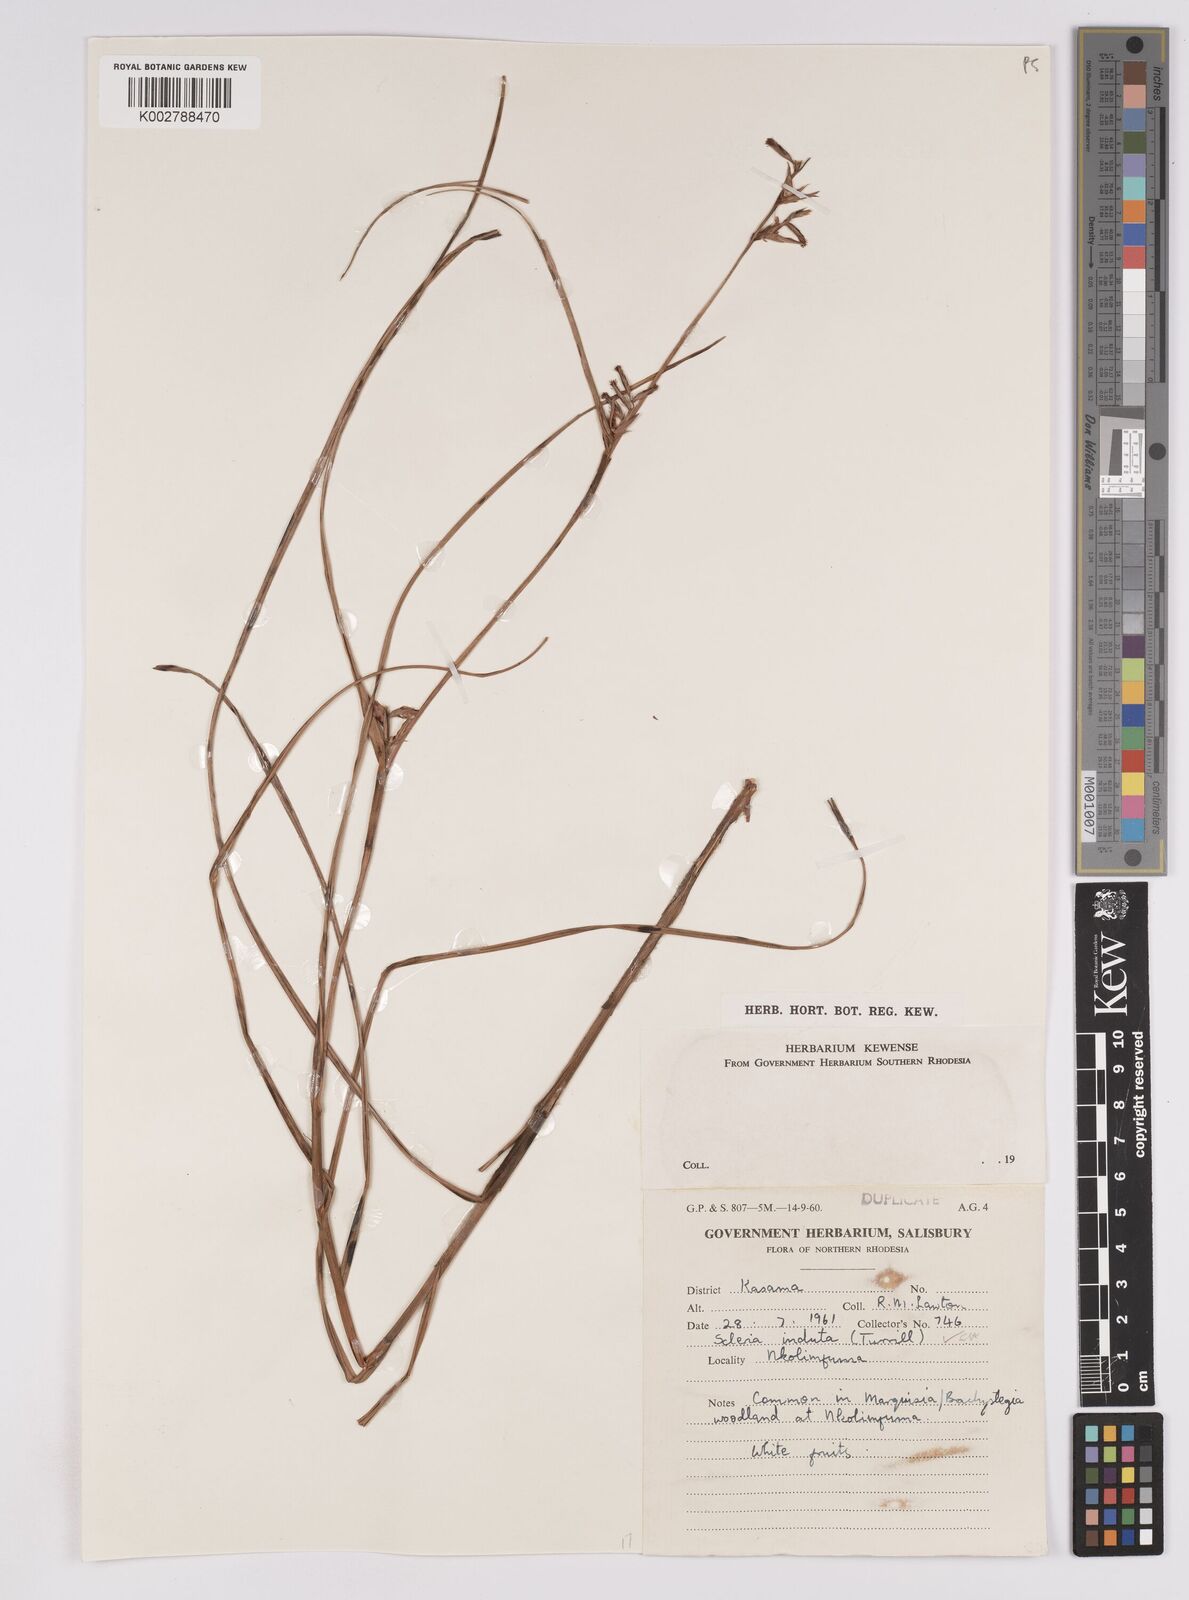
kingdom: Plantae
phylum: Tracheophyta
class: Liliopsida
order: Poales
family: Cyperaceae
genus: Scleria
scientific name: Scleria induta
